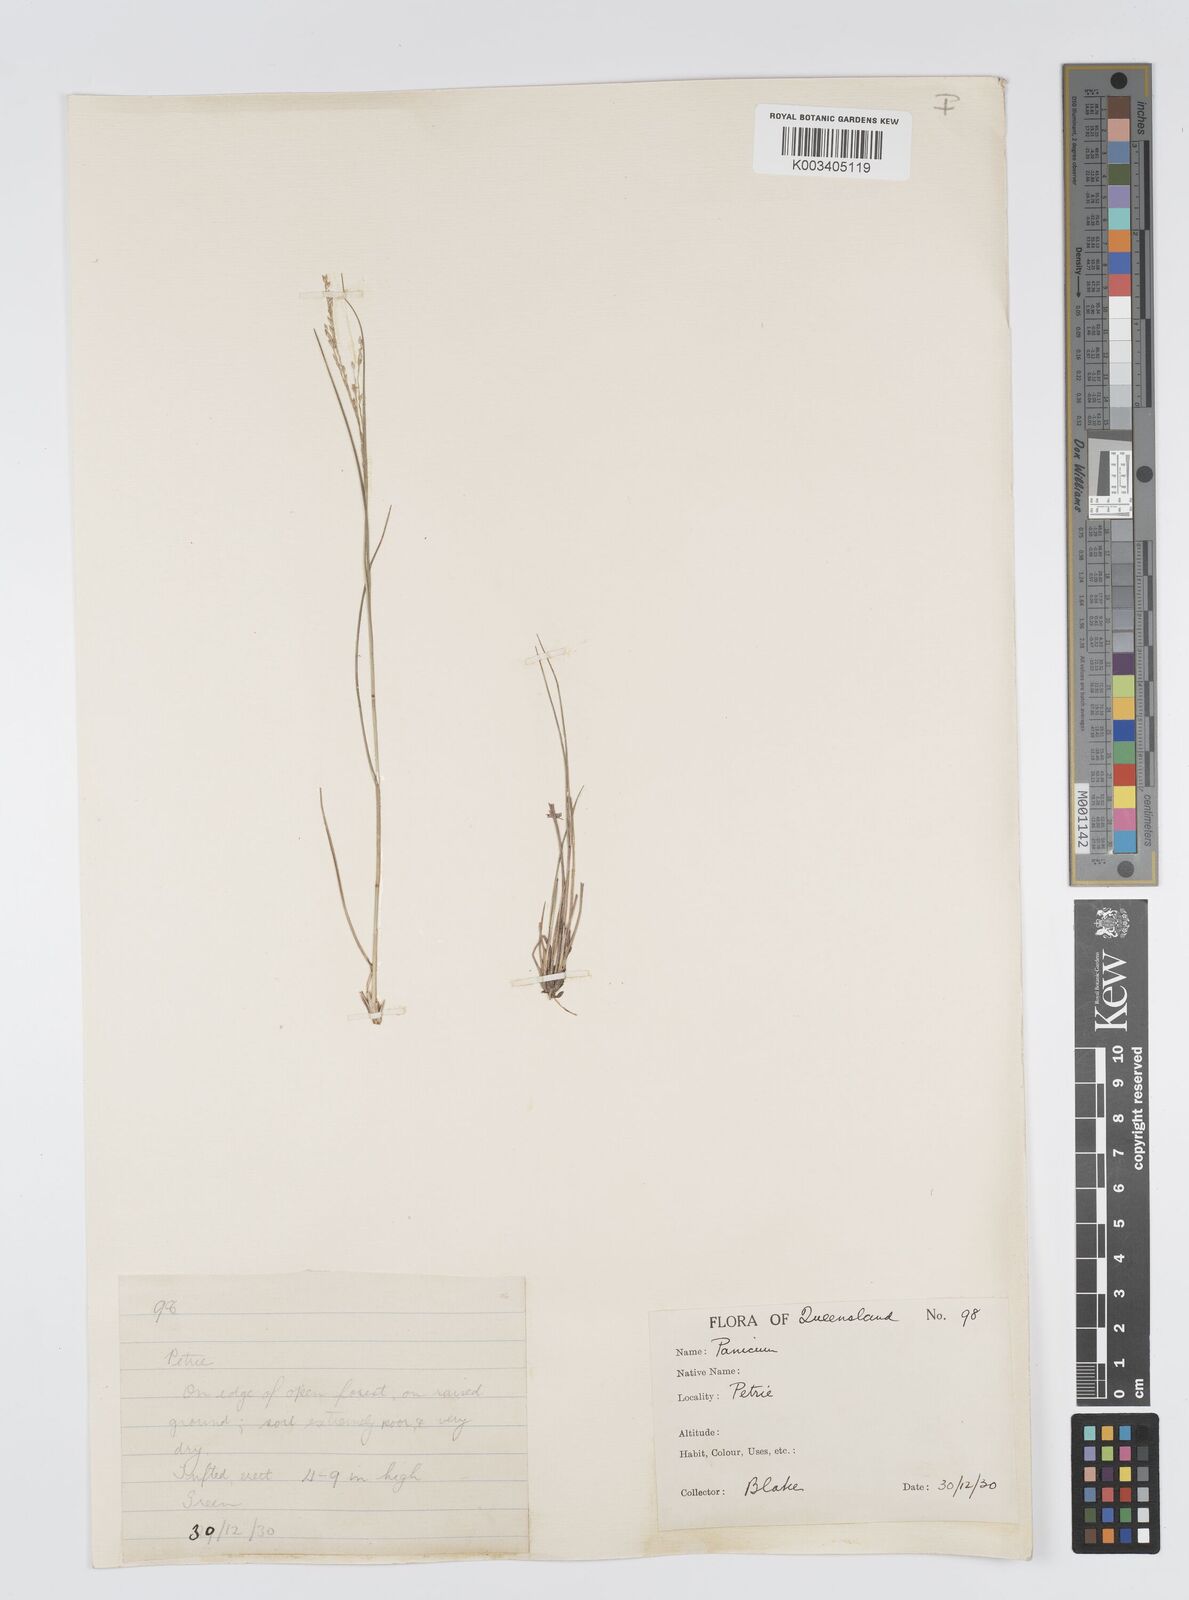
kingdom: Plantae
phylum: Tracheophyta
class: Liliopsida
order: Poales
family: Poaceae
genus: Panicum
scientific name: Panicum simile
